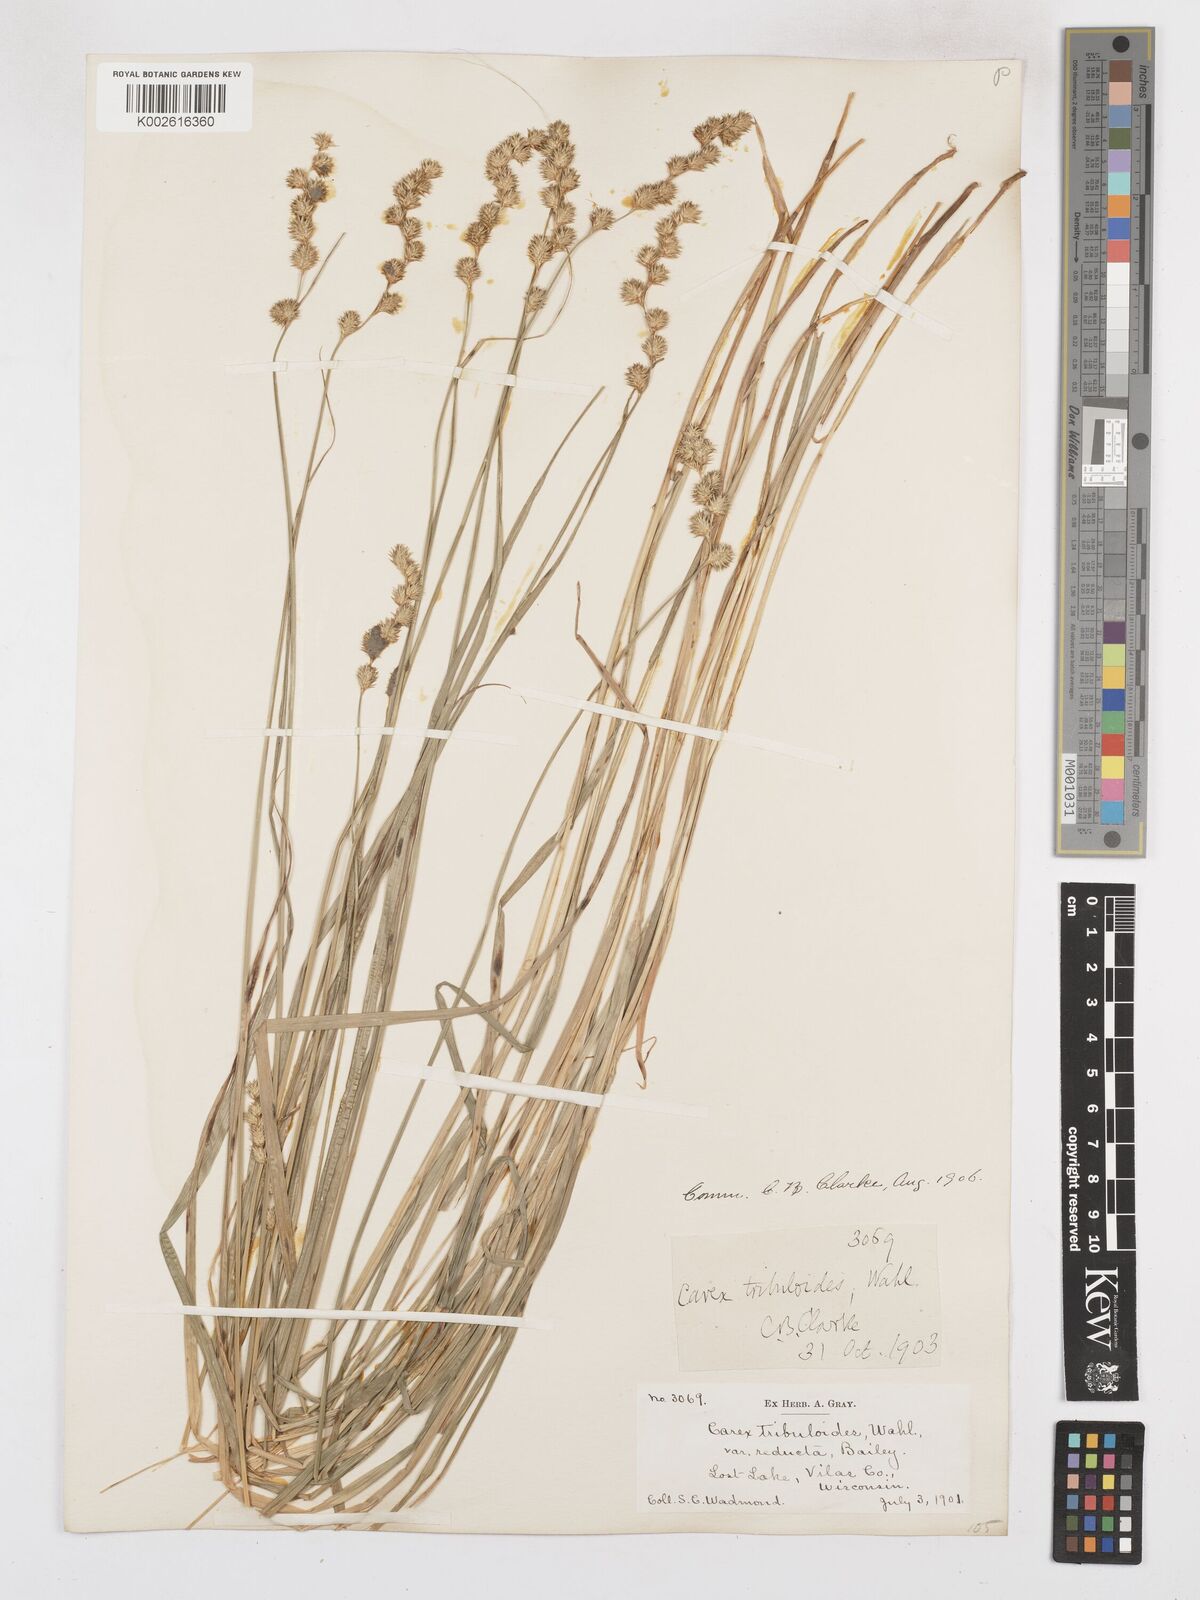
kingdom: Plantae
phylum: Tracheophyta
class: Liliopsida
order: Poales
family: Cyperaceae
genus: Carex
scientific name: Carex tribuloides
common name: Blunt broom sedge
